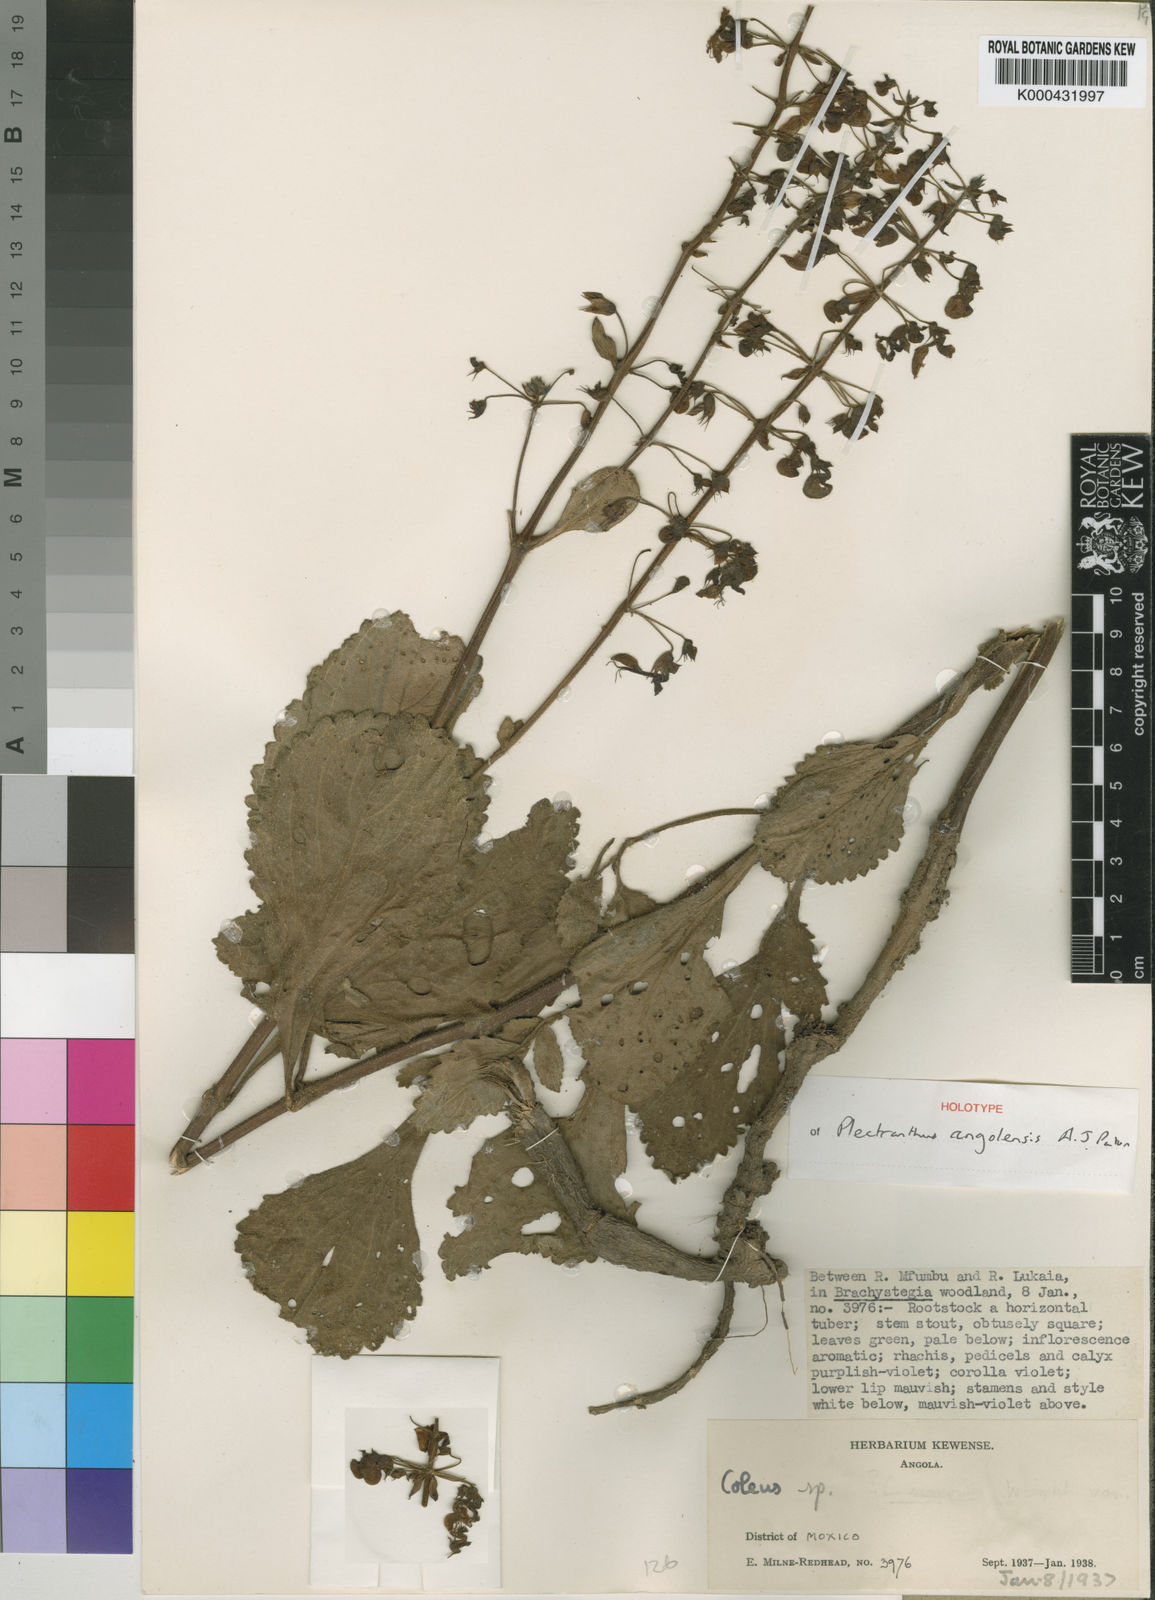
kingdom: Plantae
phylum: Tracheophyta
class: Magnoliopsida
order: Lamiales
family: Lamiaceae
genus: Plectranthus
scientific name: Plectranthus
